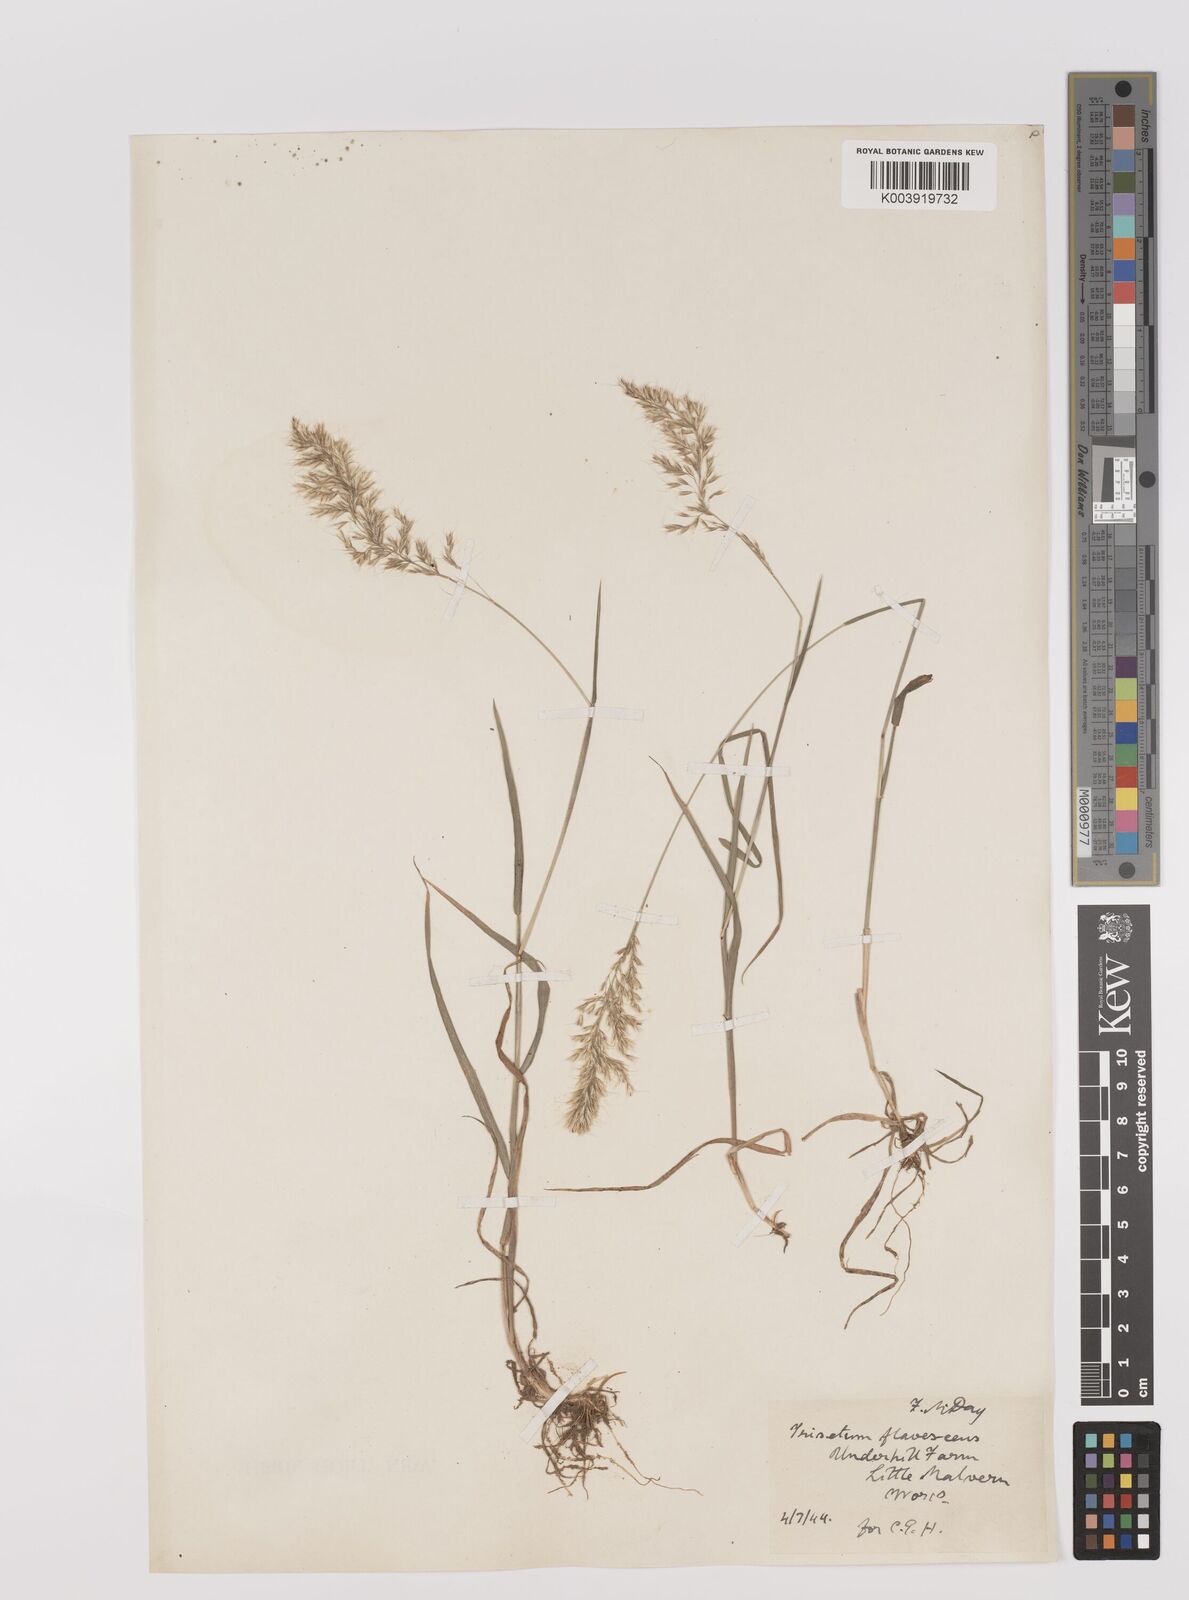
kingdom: Plantae
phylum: Tracheophyta
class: Liliopsida
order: Poales
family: Poaceae
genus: Trisetum
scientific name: Trisetum flavescens
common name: Yellow oat-grass
